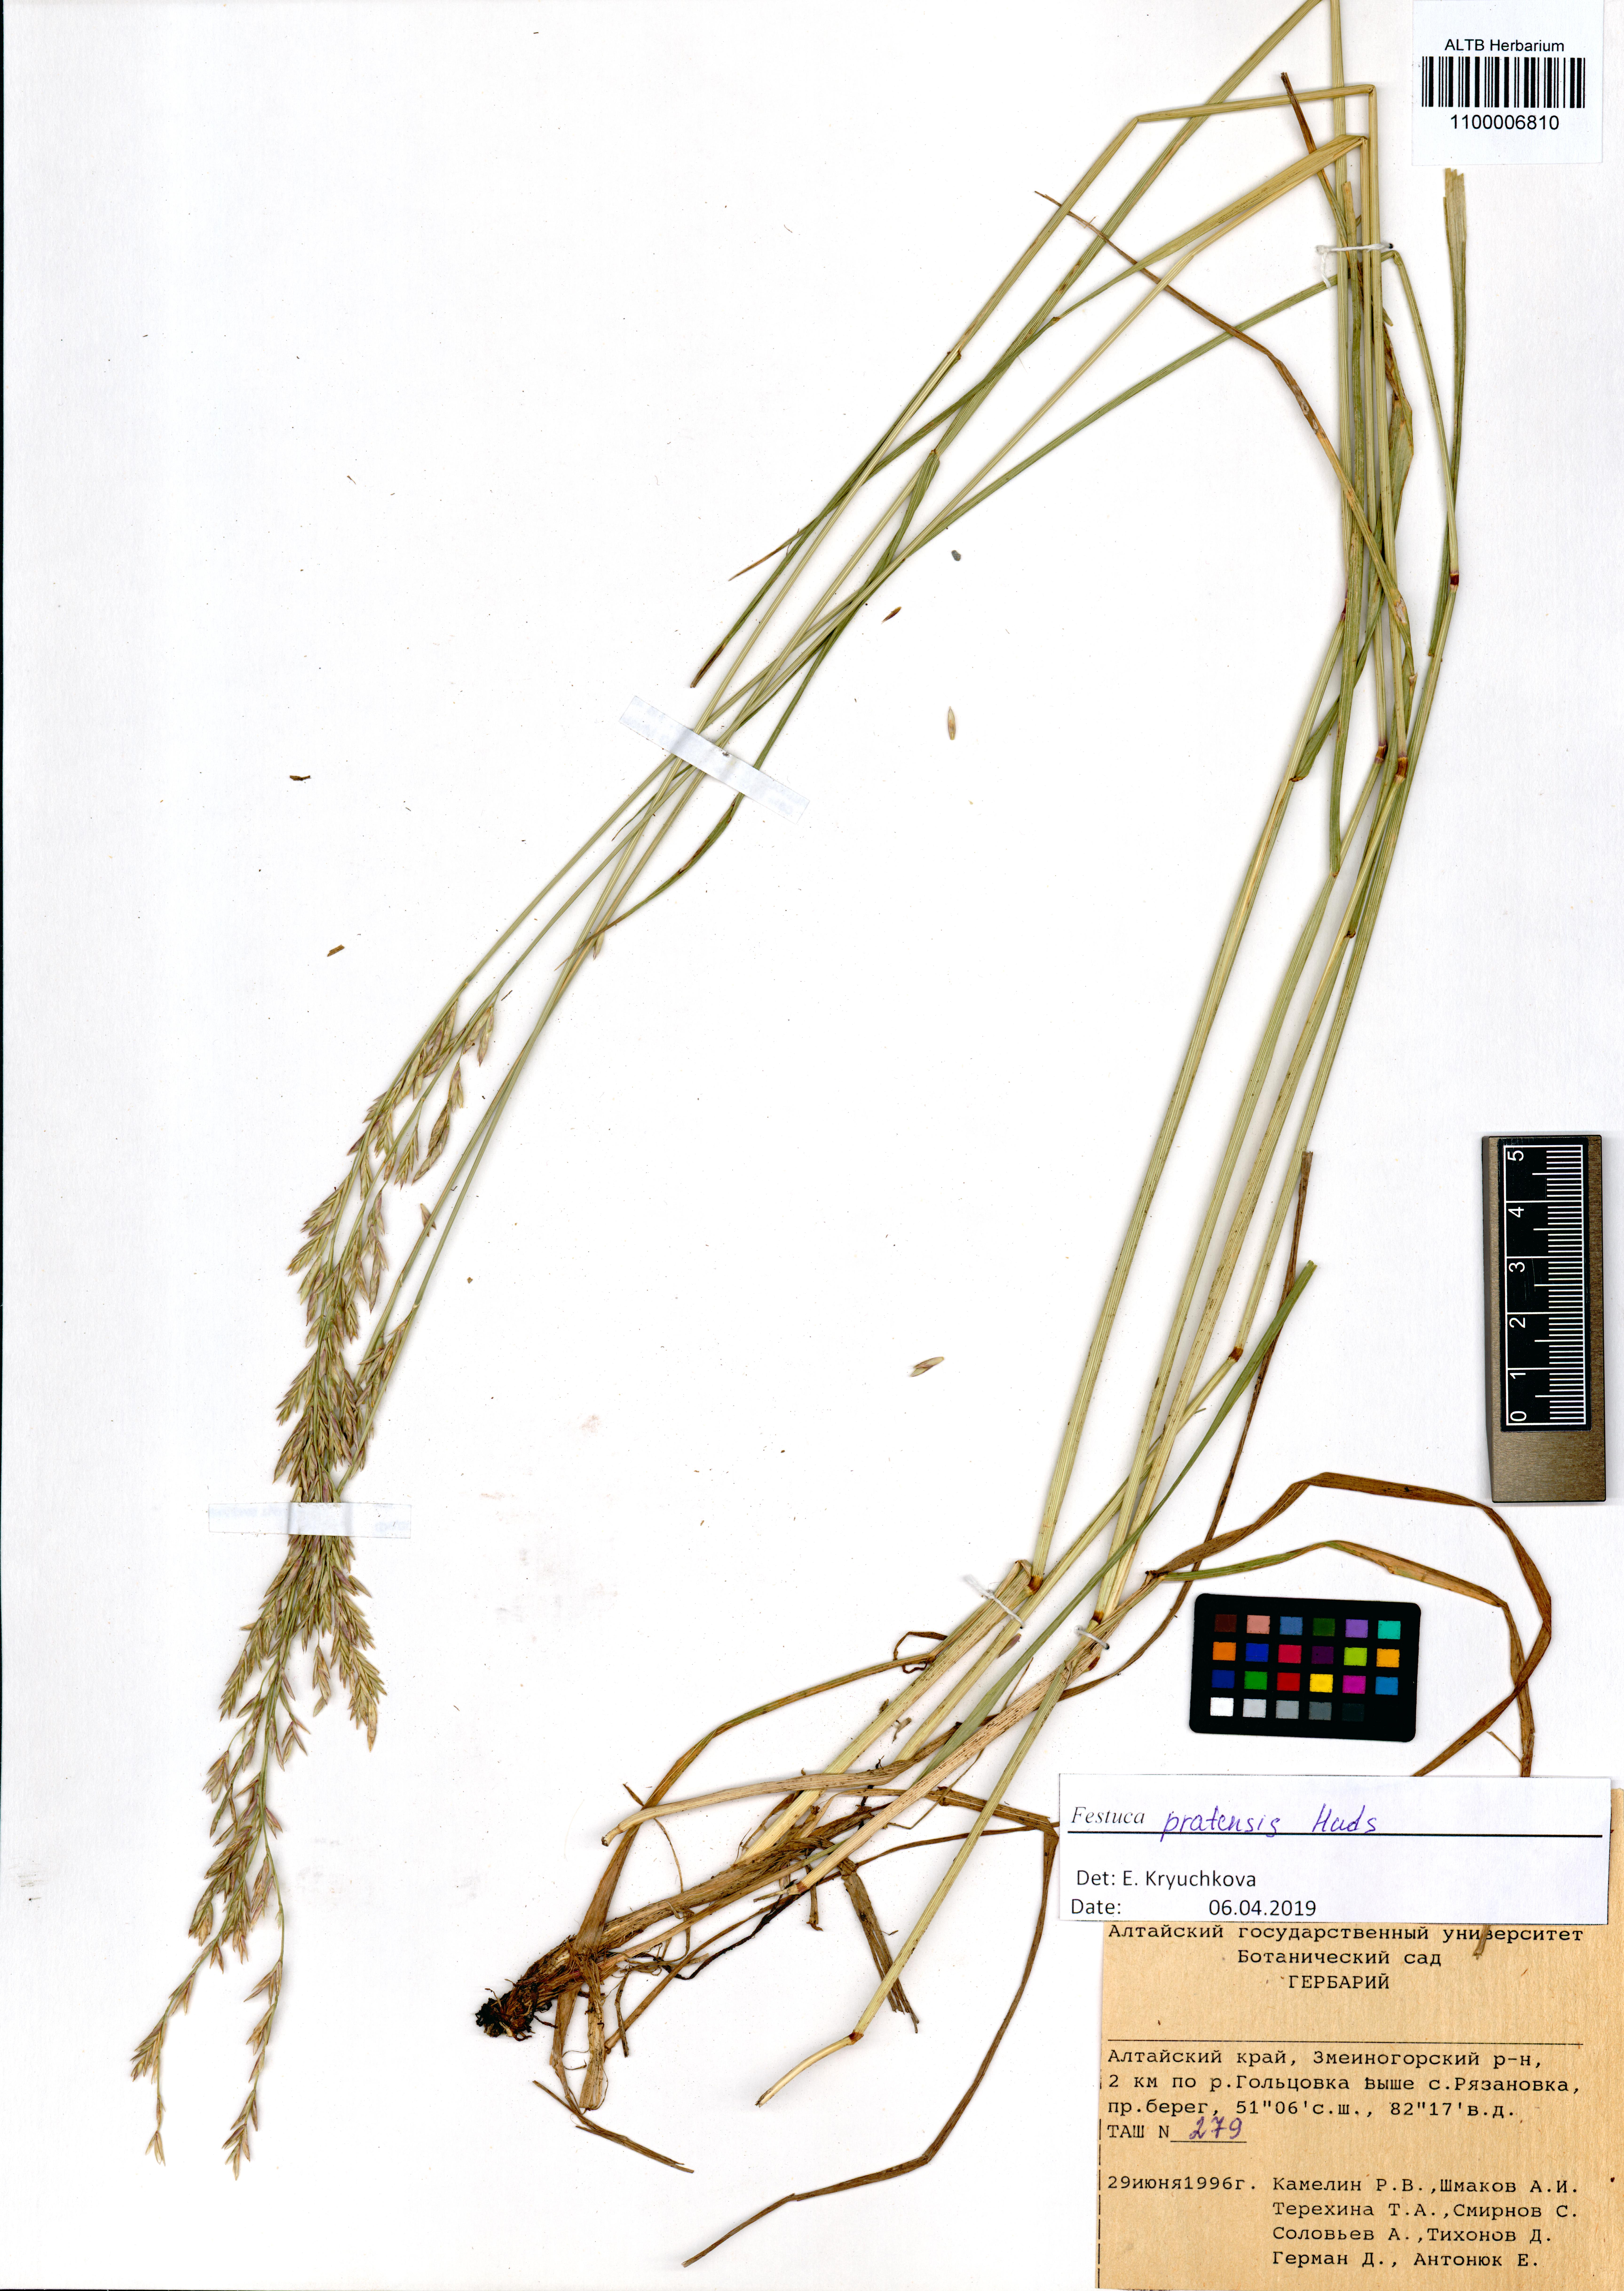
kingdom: Plantae
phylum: Tracheophyta
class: Liliopsida
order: Poales
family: Poaceae
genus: Lolium
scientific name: Lolium pratense
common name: Dover grass
